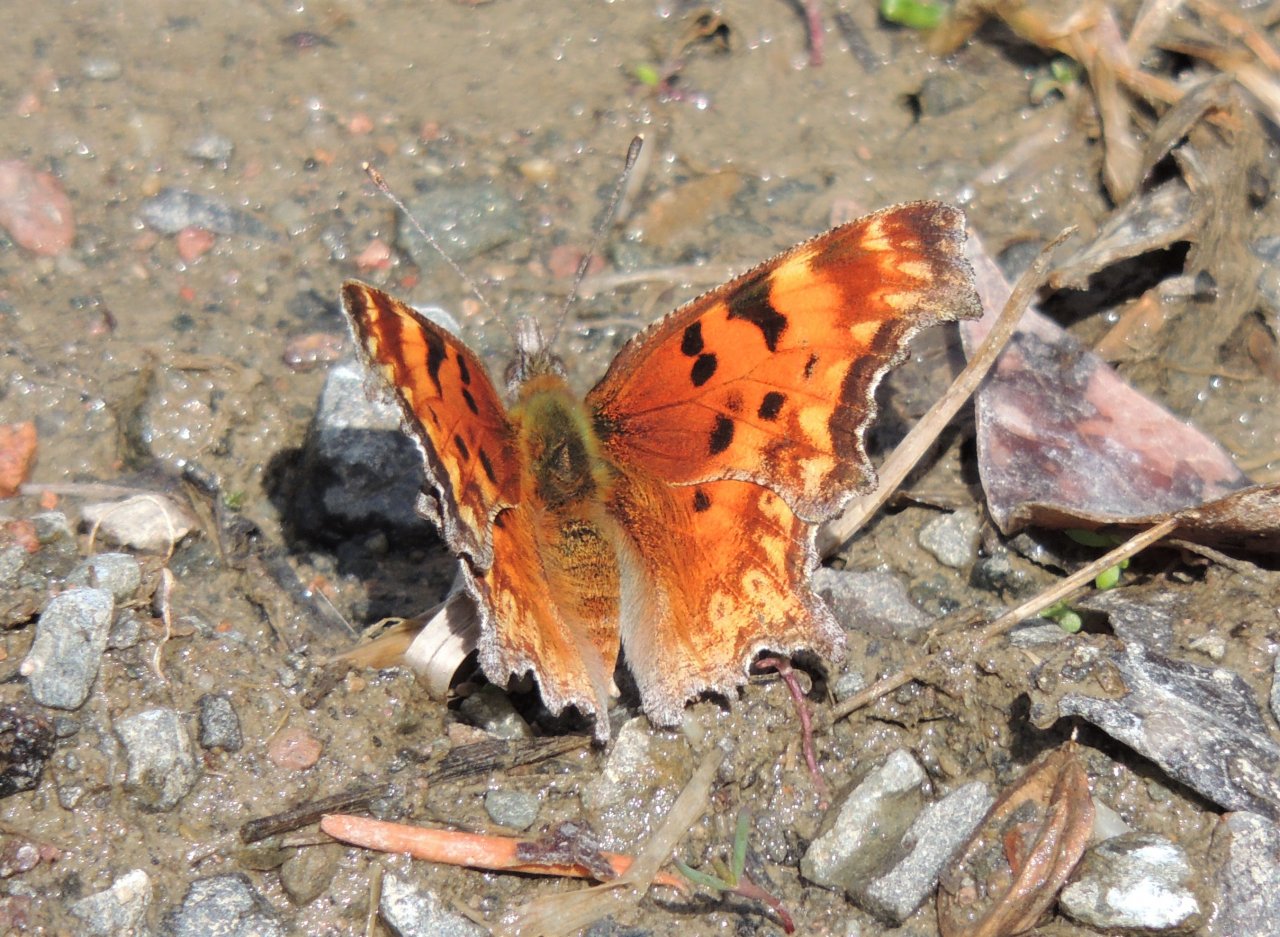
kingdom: Animalia
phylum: Arthropoda
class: Insecta
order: Lepidoptera
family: Nymphalidae
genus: Polygonia
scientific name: Polygonia gracilis
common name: Hoary Comma
